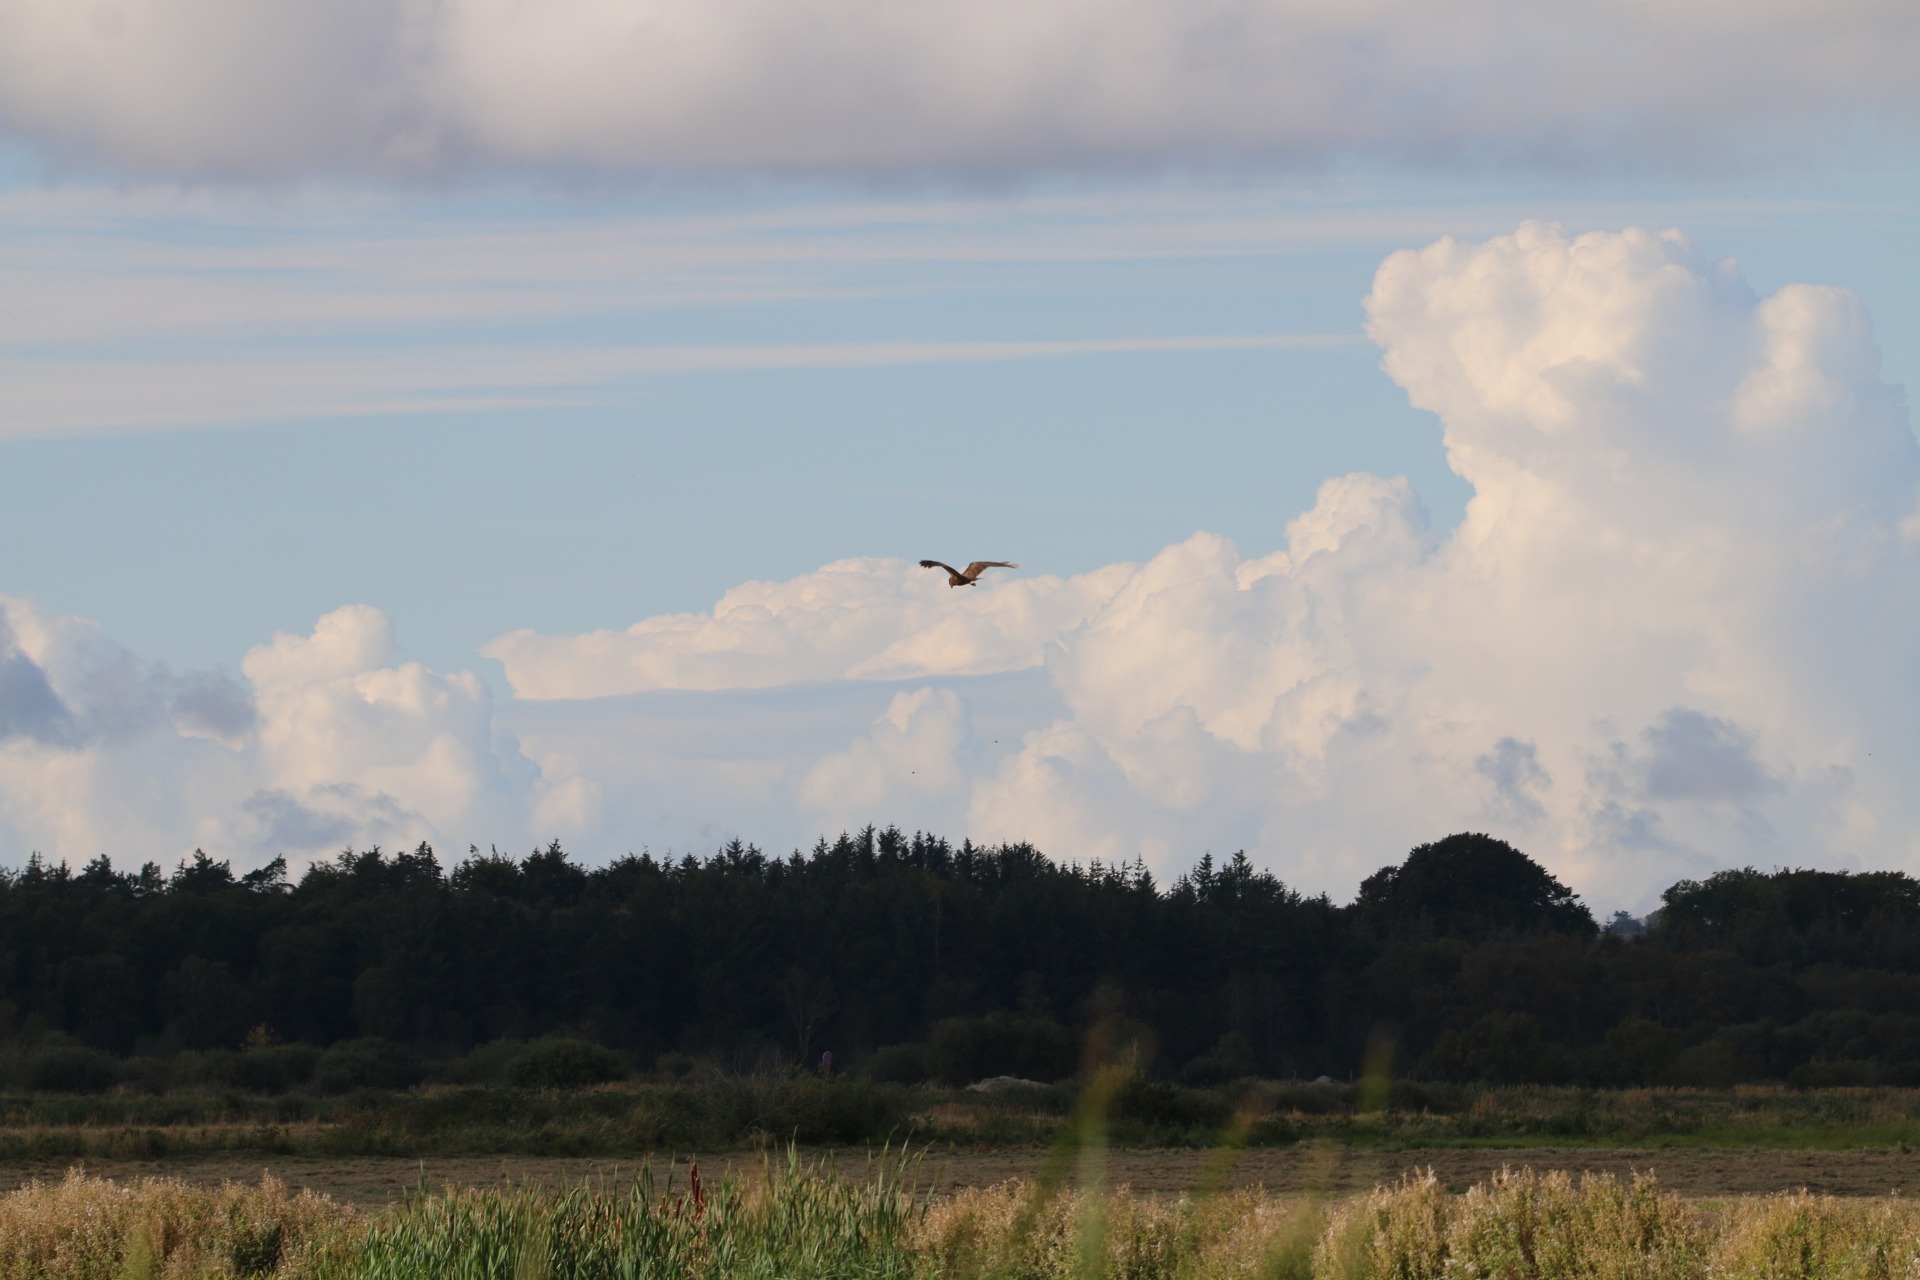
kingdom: Animalia
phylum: Chordata
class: Aves
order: Accipitriformes
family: Accipitridae
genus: Circus
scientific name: Circus aeruginosus
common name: Rørhøg
